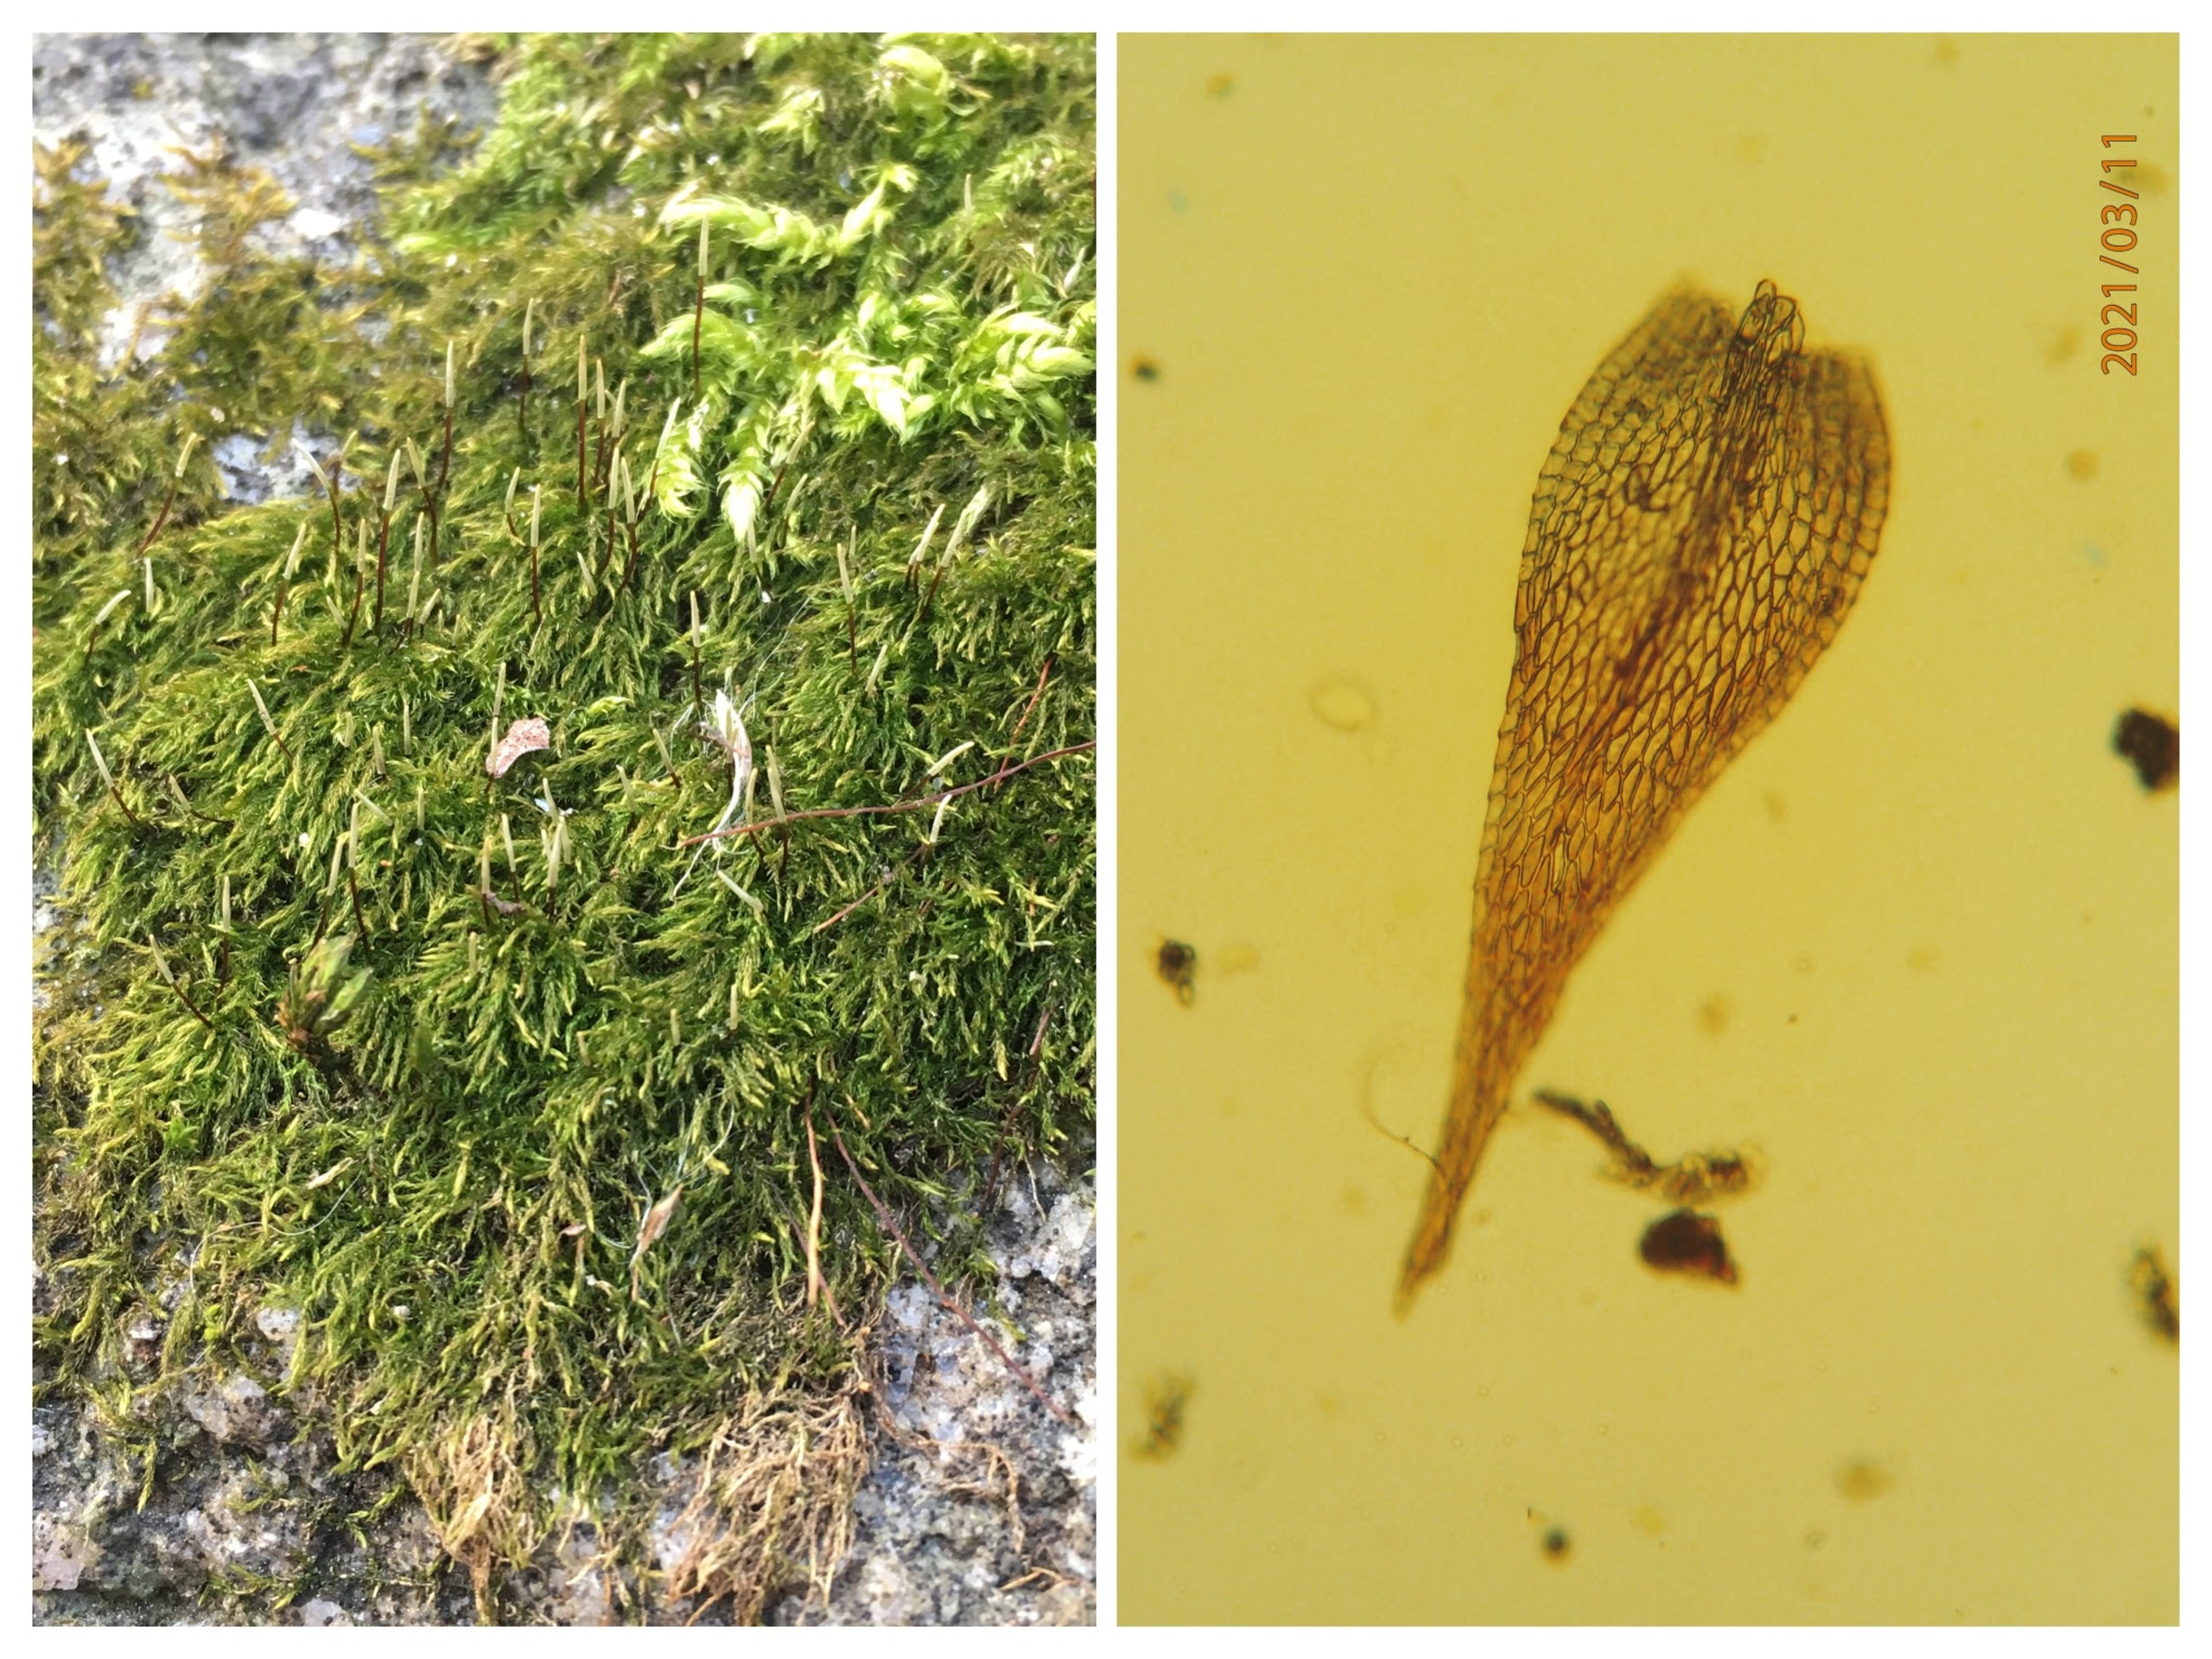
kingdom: Plantae
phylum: Bryophyta
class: Bryopsida
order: Hypnales
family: Amblystegiaceae
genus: Amblystegium
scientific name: Amblystegium serpens
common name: Almindelig krybmos
